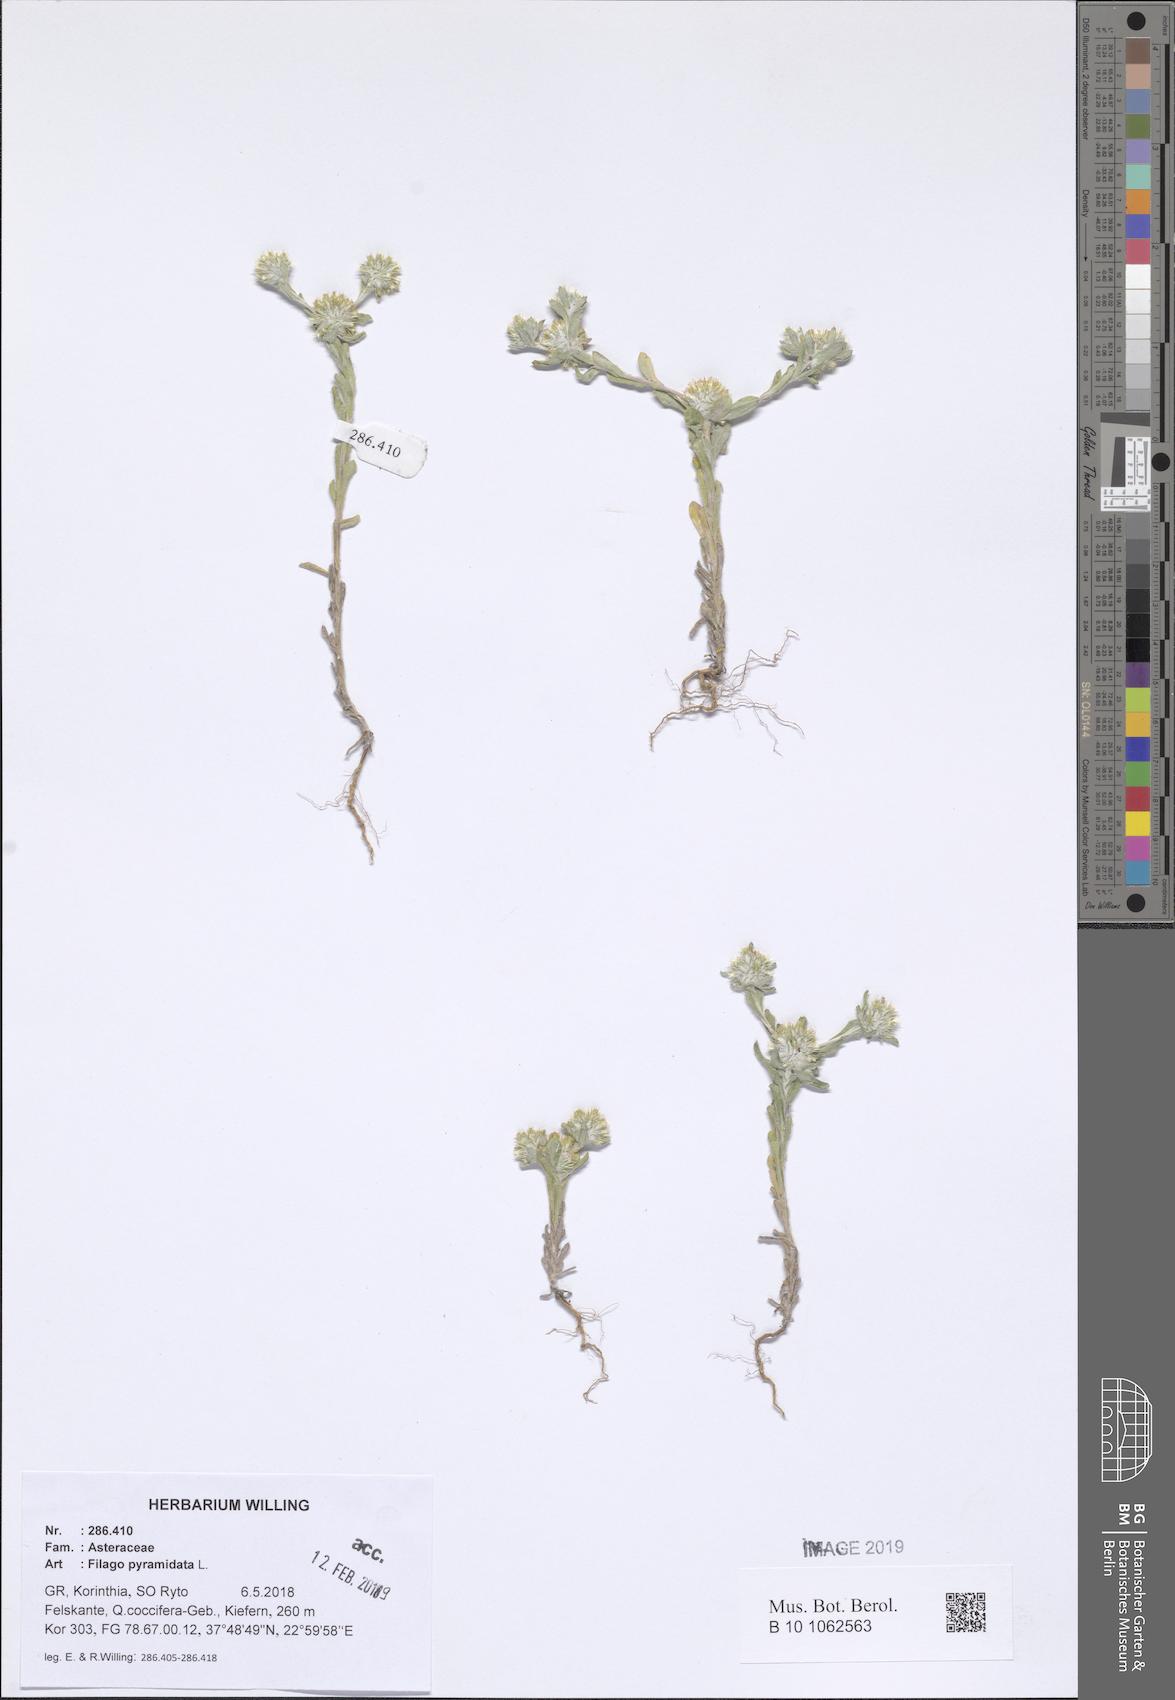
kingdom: Plantae
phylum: Tracheophyta
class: Magnoliopsida
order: Asterales
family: Asteraceae
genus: Filago
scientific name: Filago pyramidata
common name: Broad-leaved cudweed
